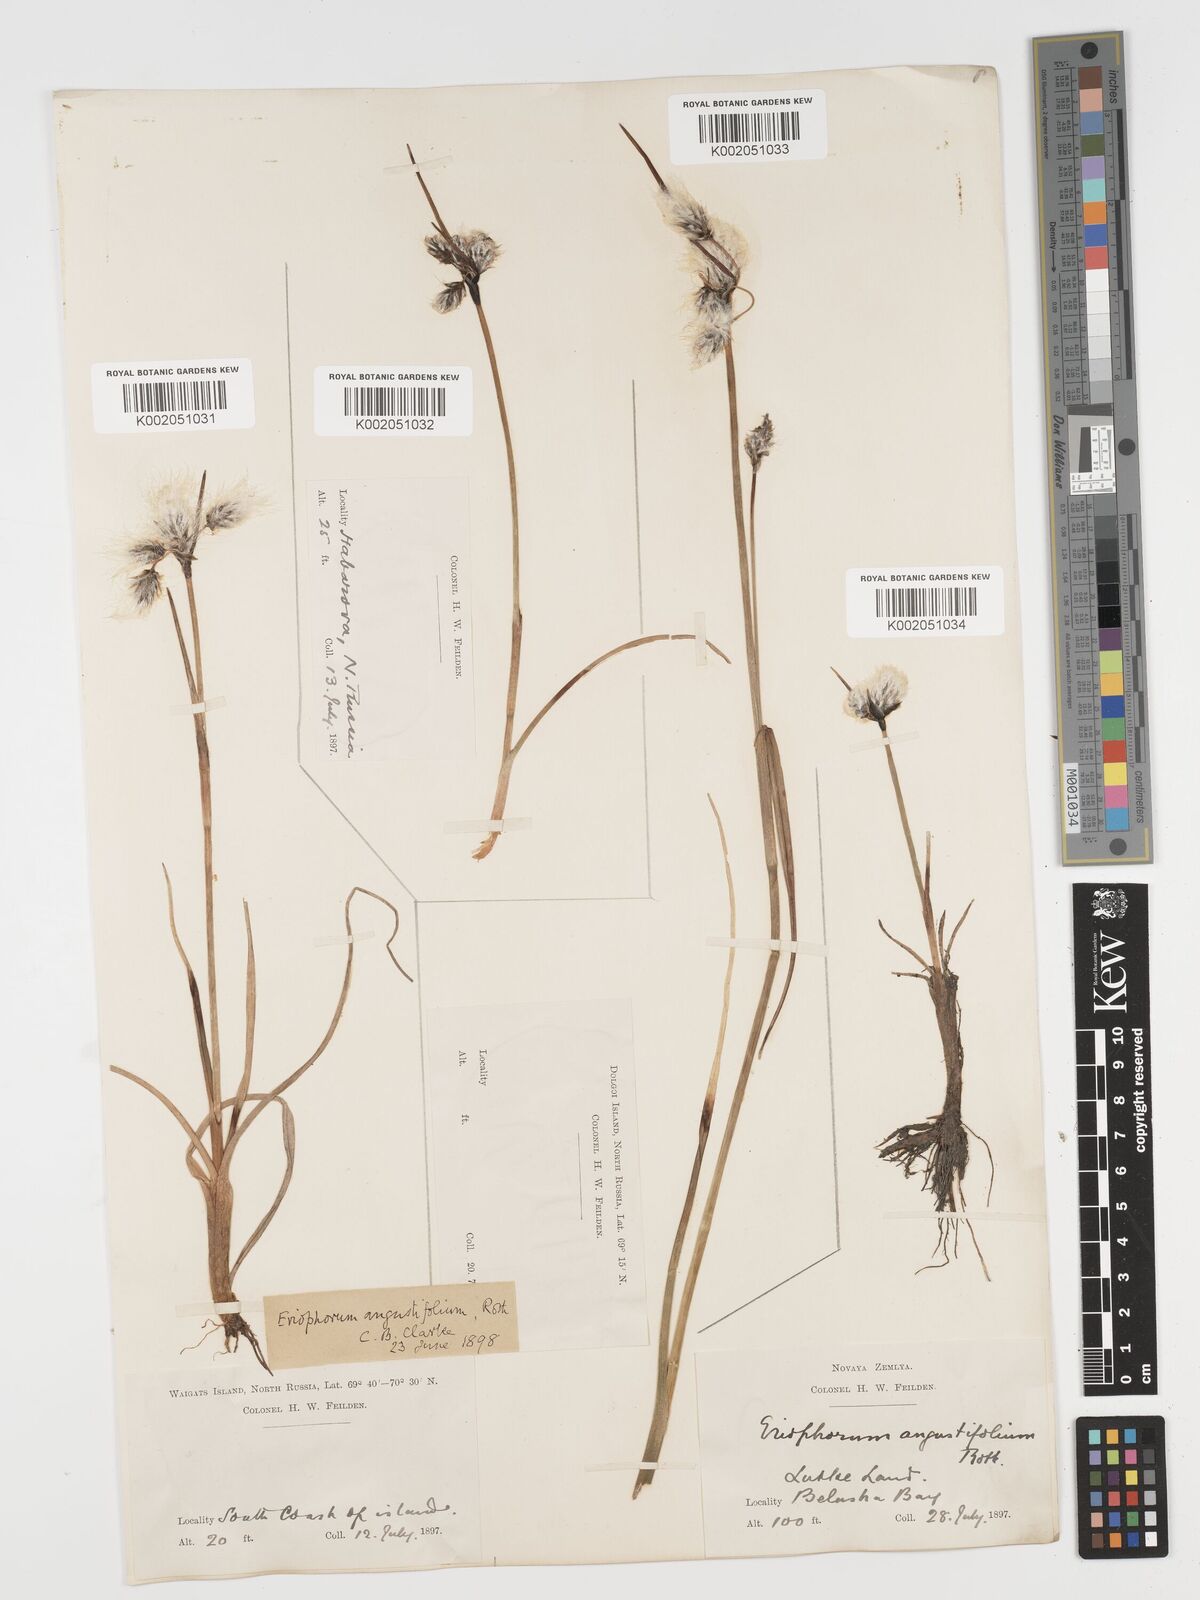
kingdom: Plantae
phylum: Tracheophyta
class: Liliopsida
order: Poales
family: Cyperaceae
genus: Eriophorum
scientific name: Eriophorum angustifolium
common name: Common cottongrass
